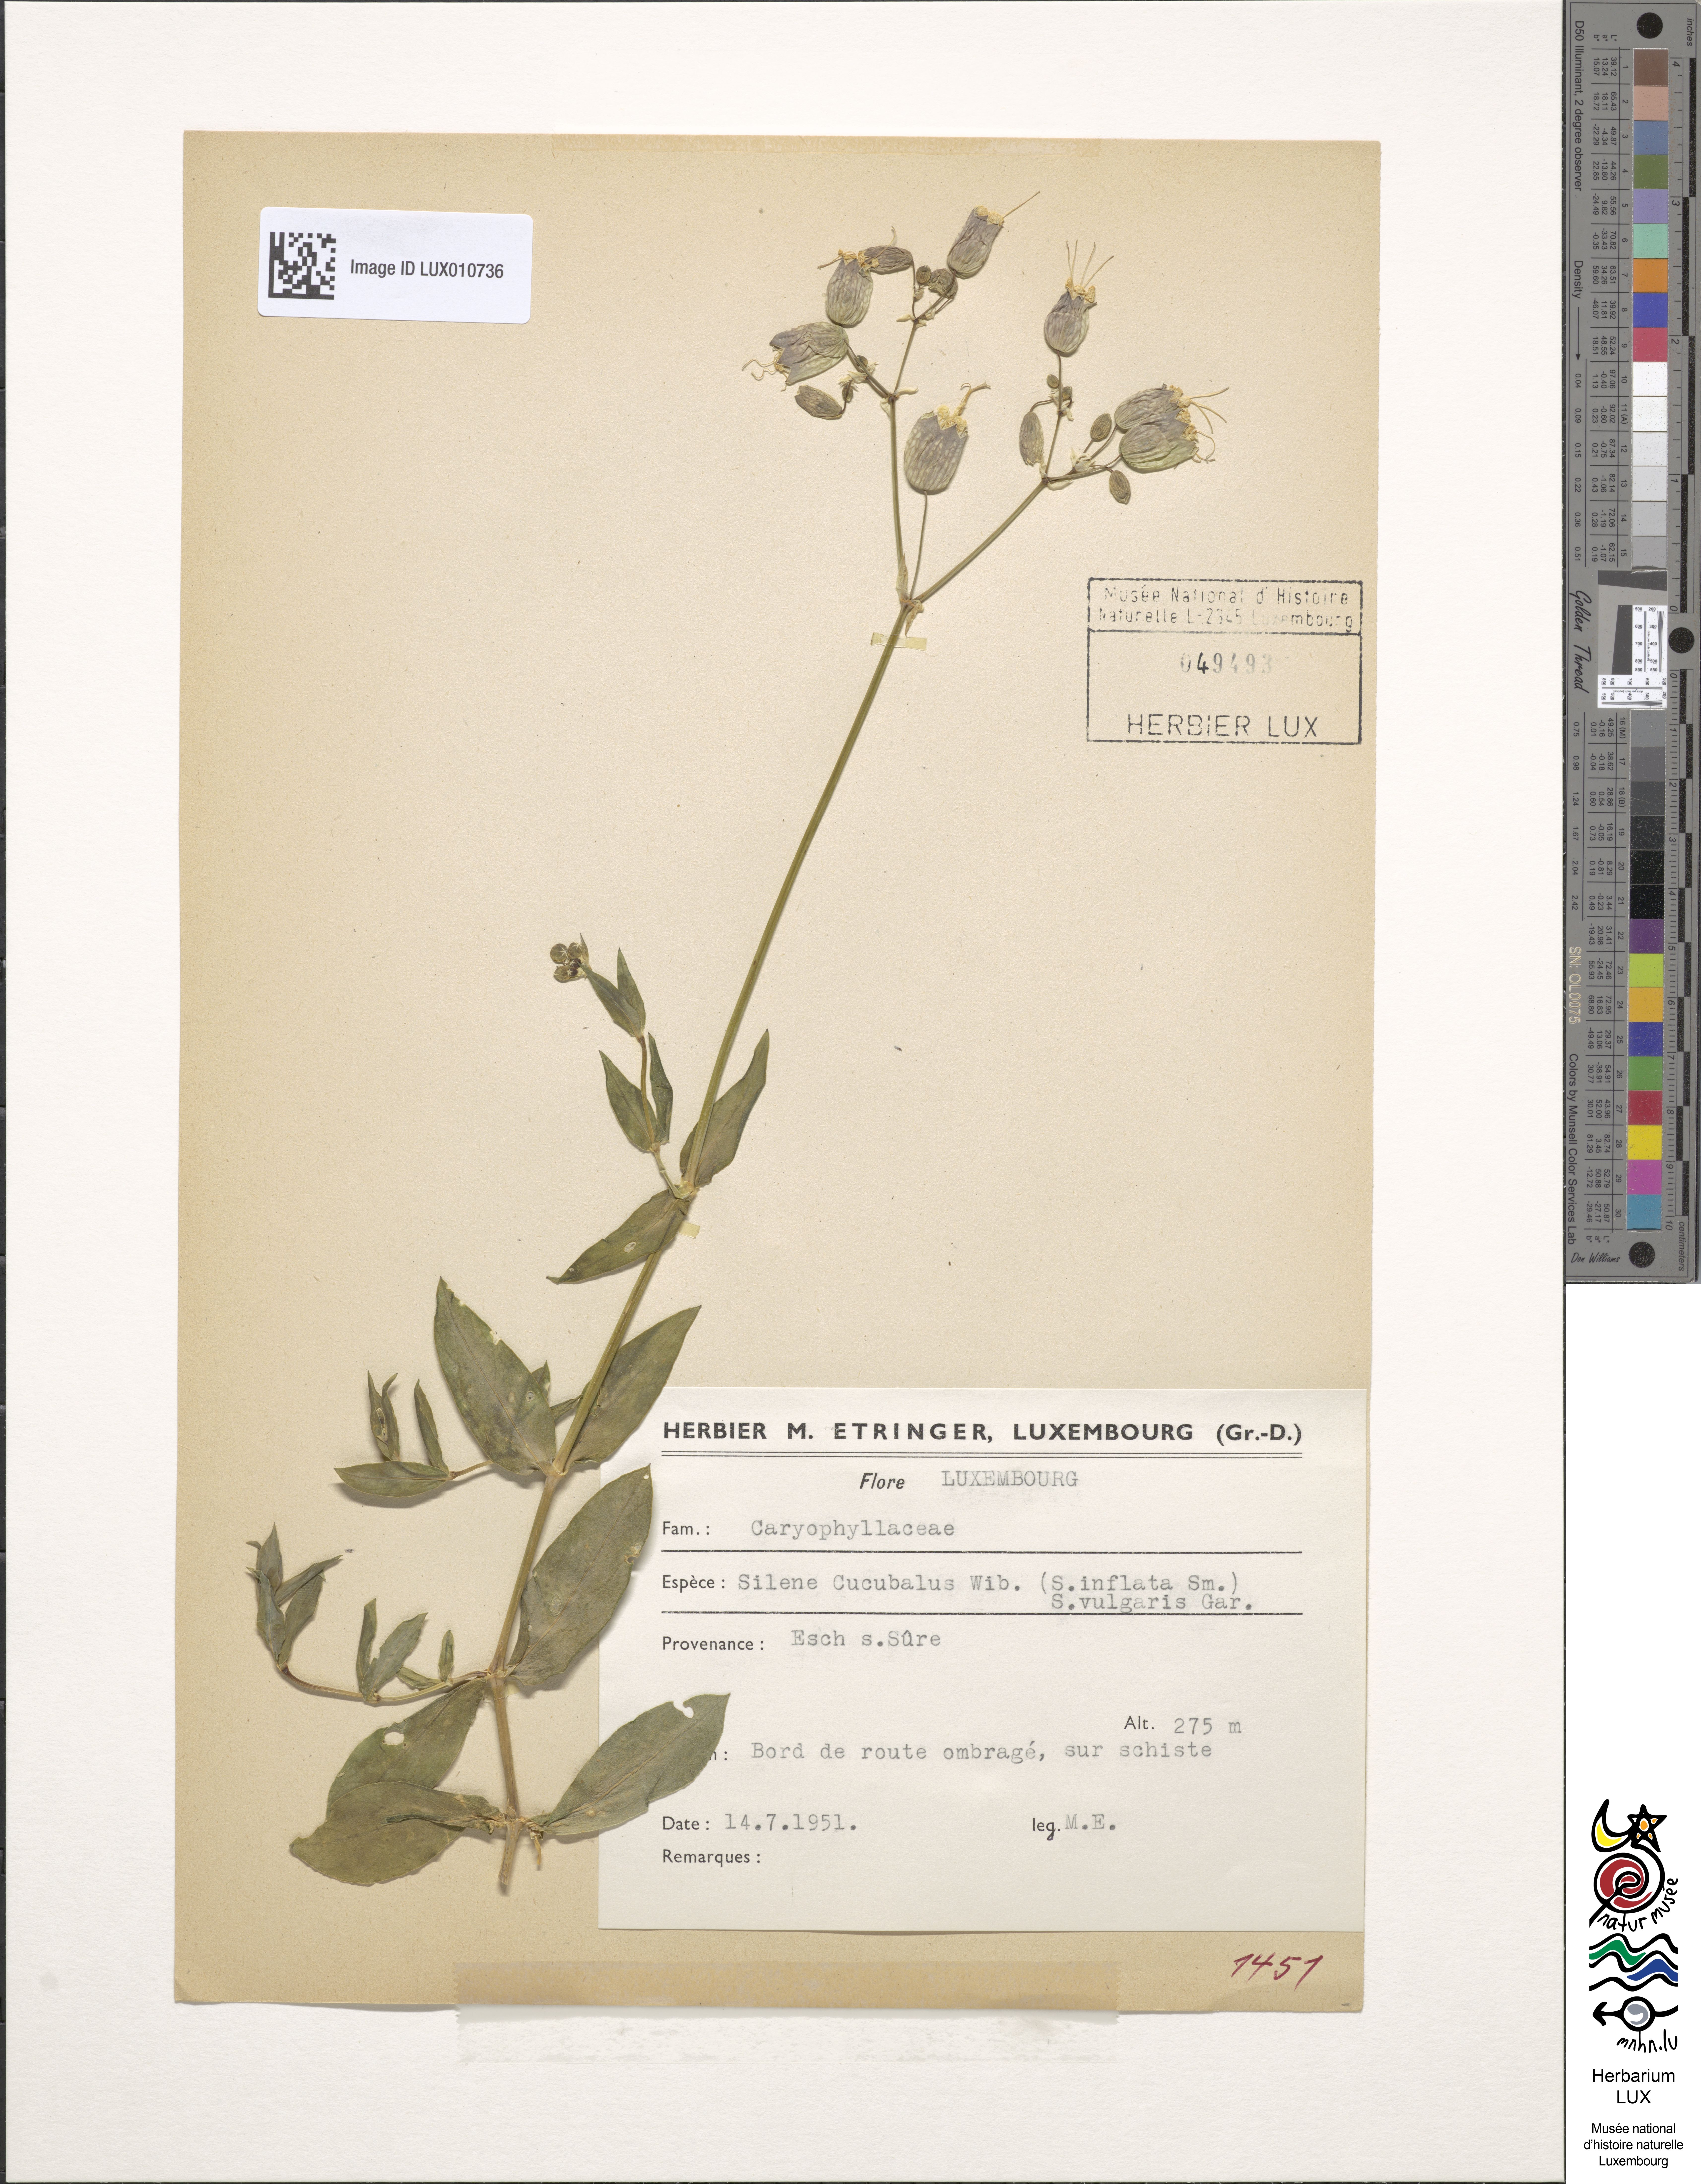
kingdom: Plantae
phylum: Tracheophyta
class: Magnoliopsida
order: Caryophyllales
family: Caryophyllaceae
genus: Silene
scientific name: Silene vulgaris
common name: Bladder campion
